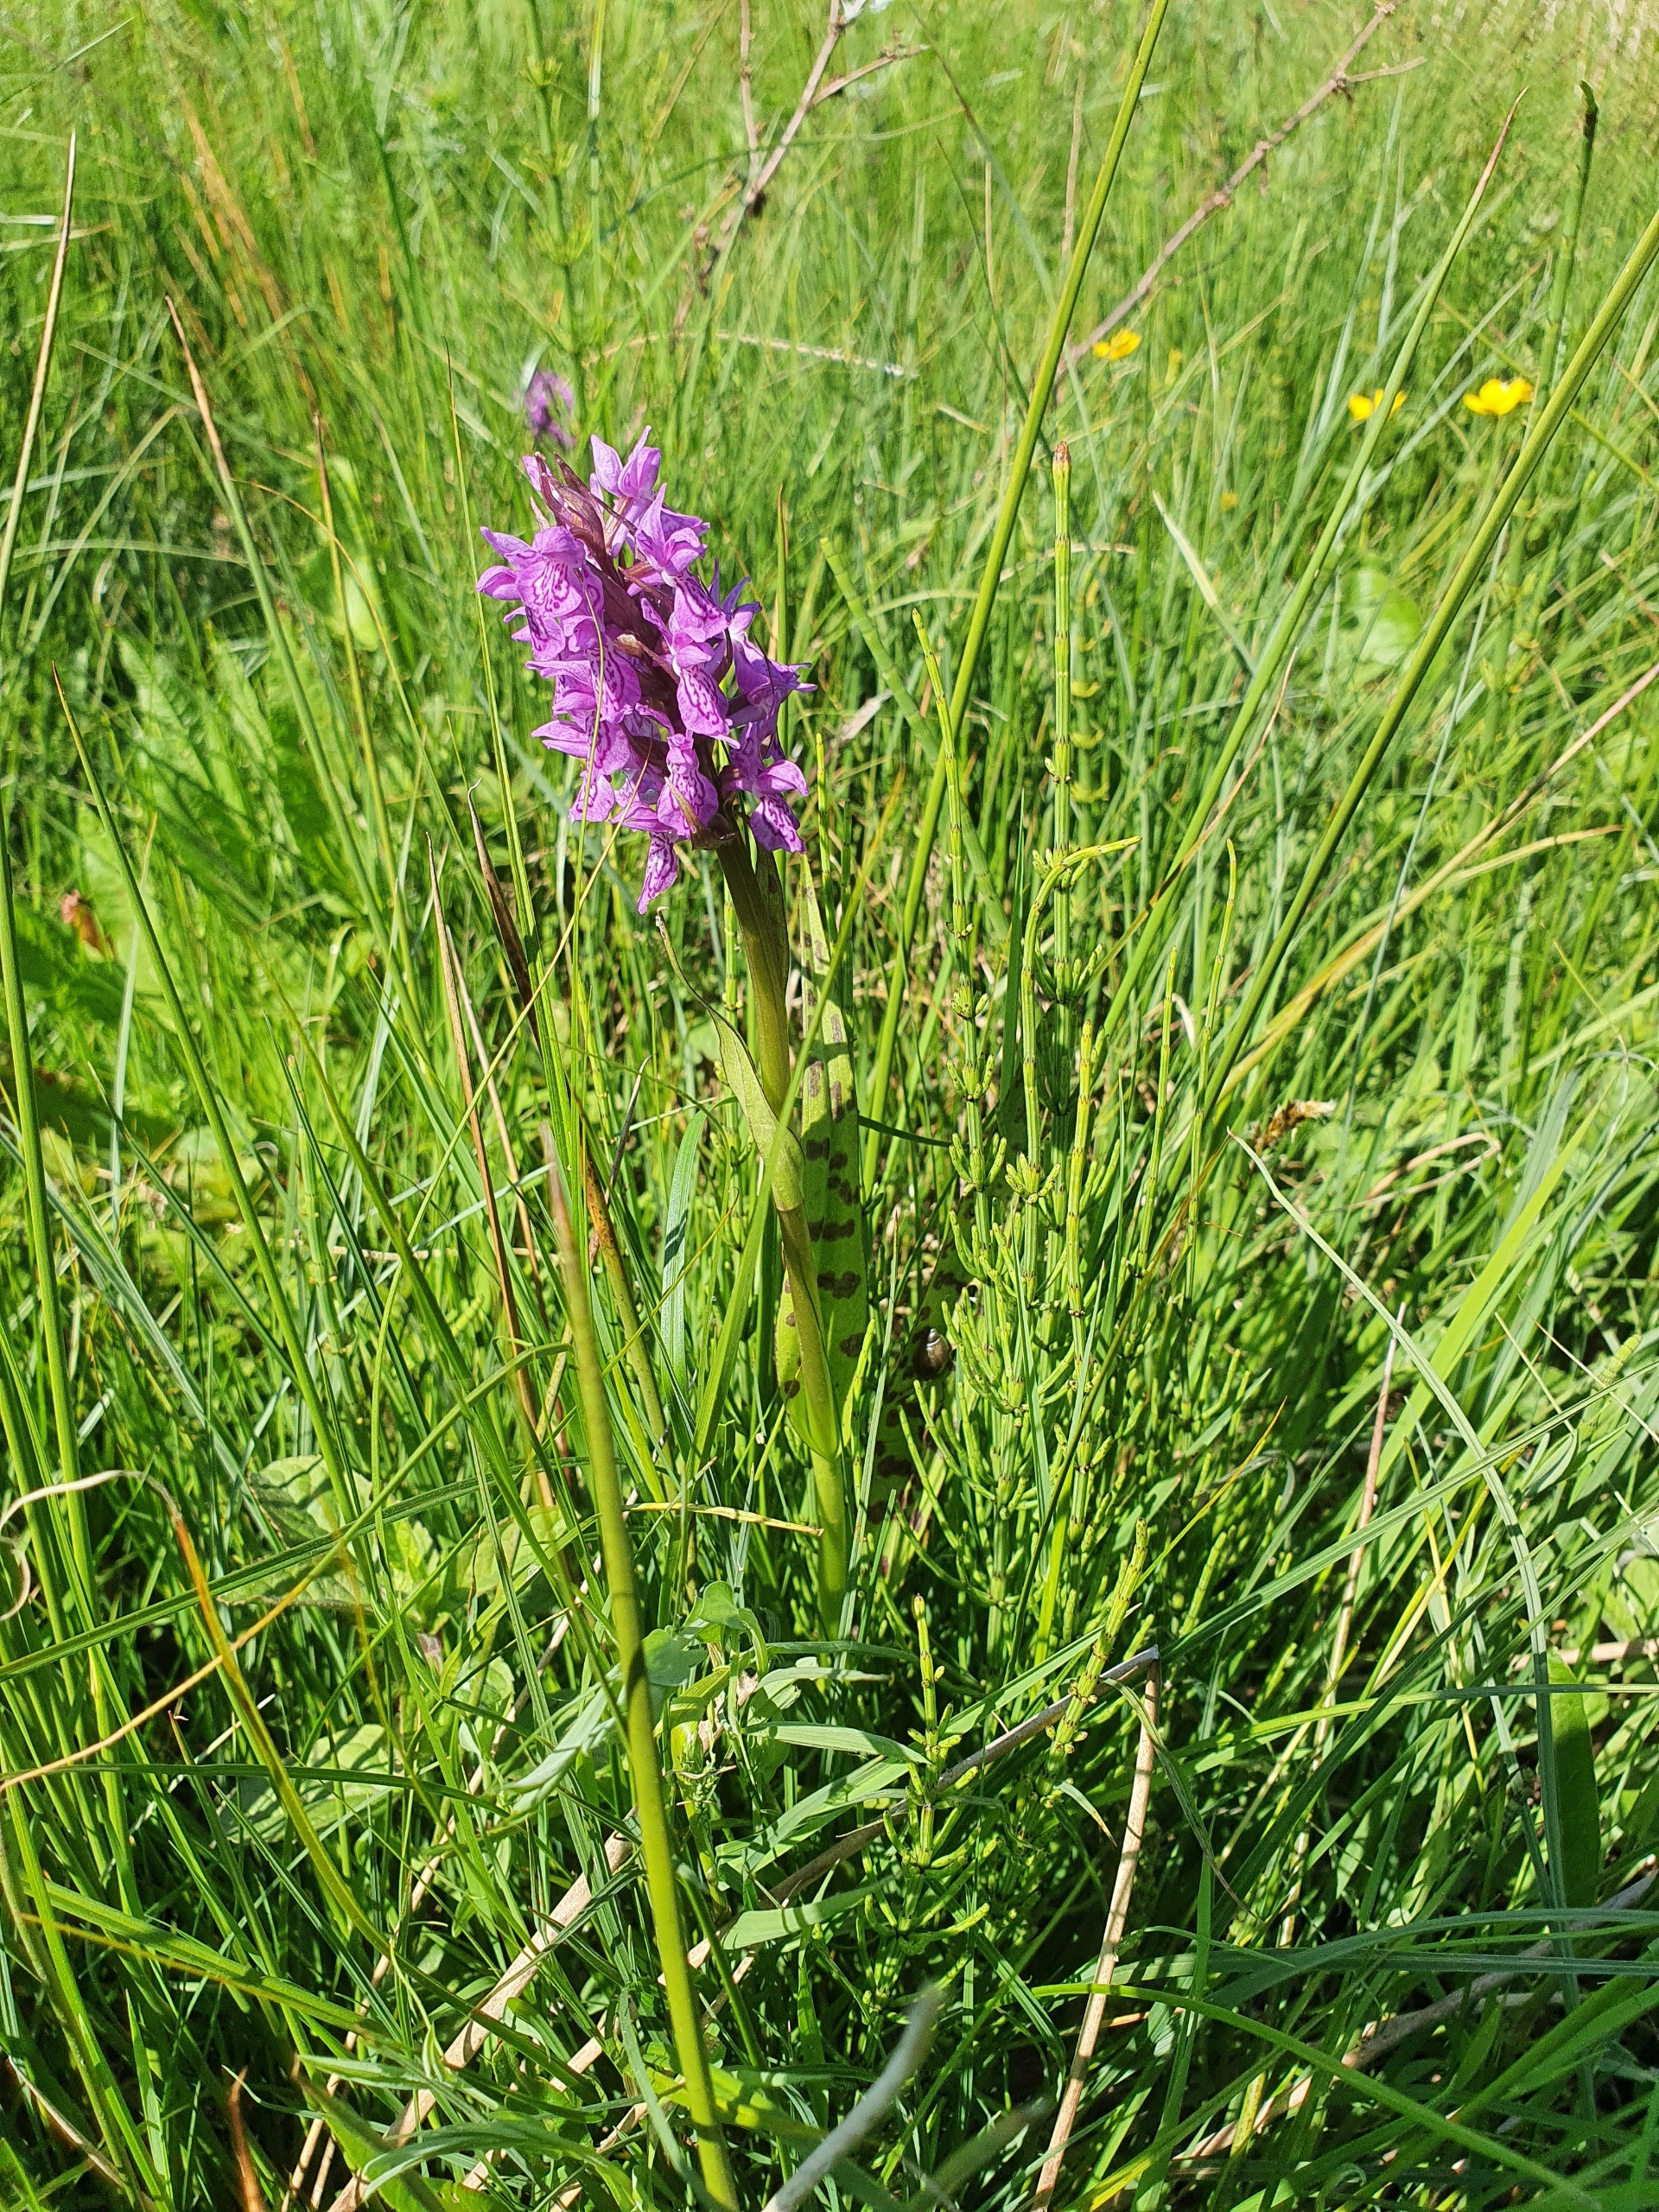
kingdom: Plantae
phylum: Tracheophyta
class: Liliopsida
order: Asparagales
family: Orchidaceae
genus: Dactylorhiza
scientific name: Dactylorhiza majalis
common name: Maj-gøgeurt
